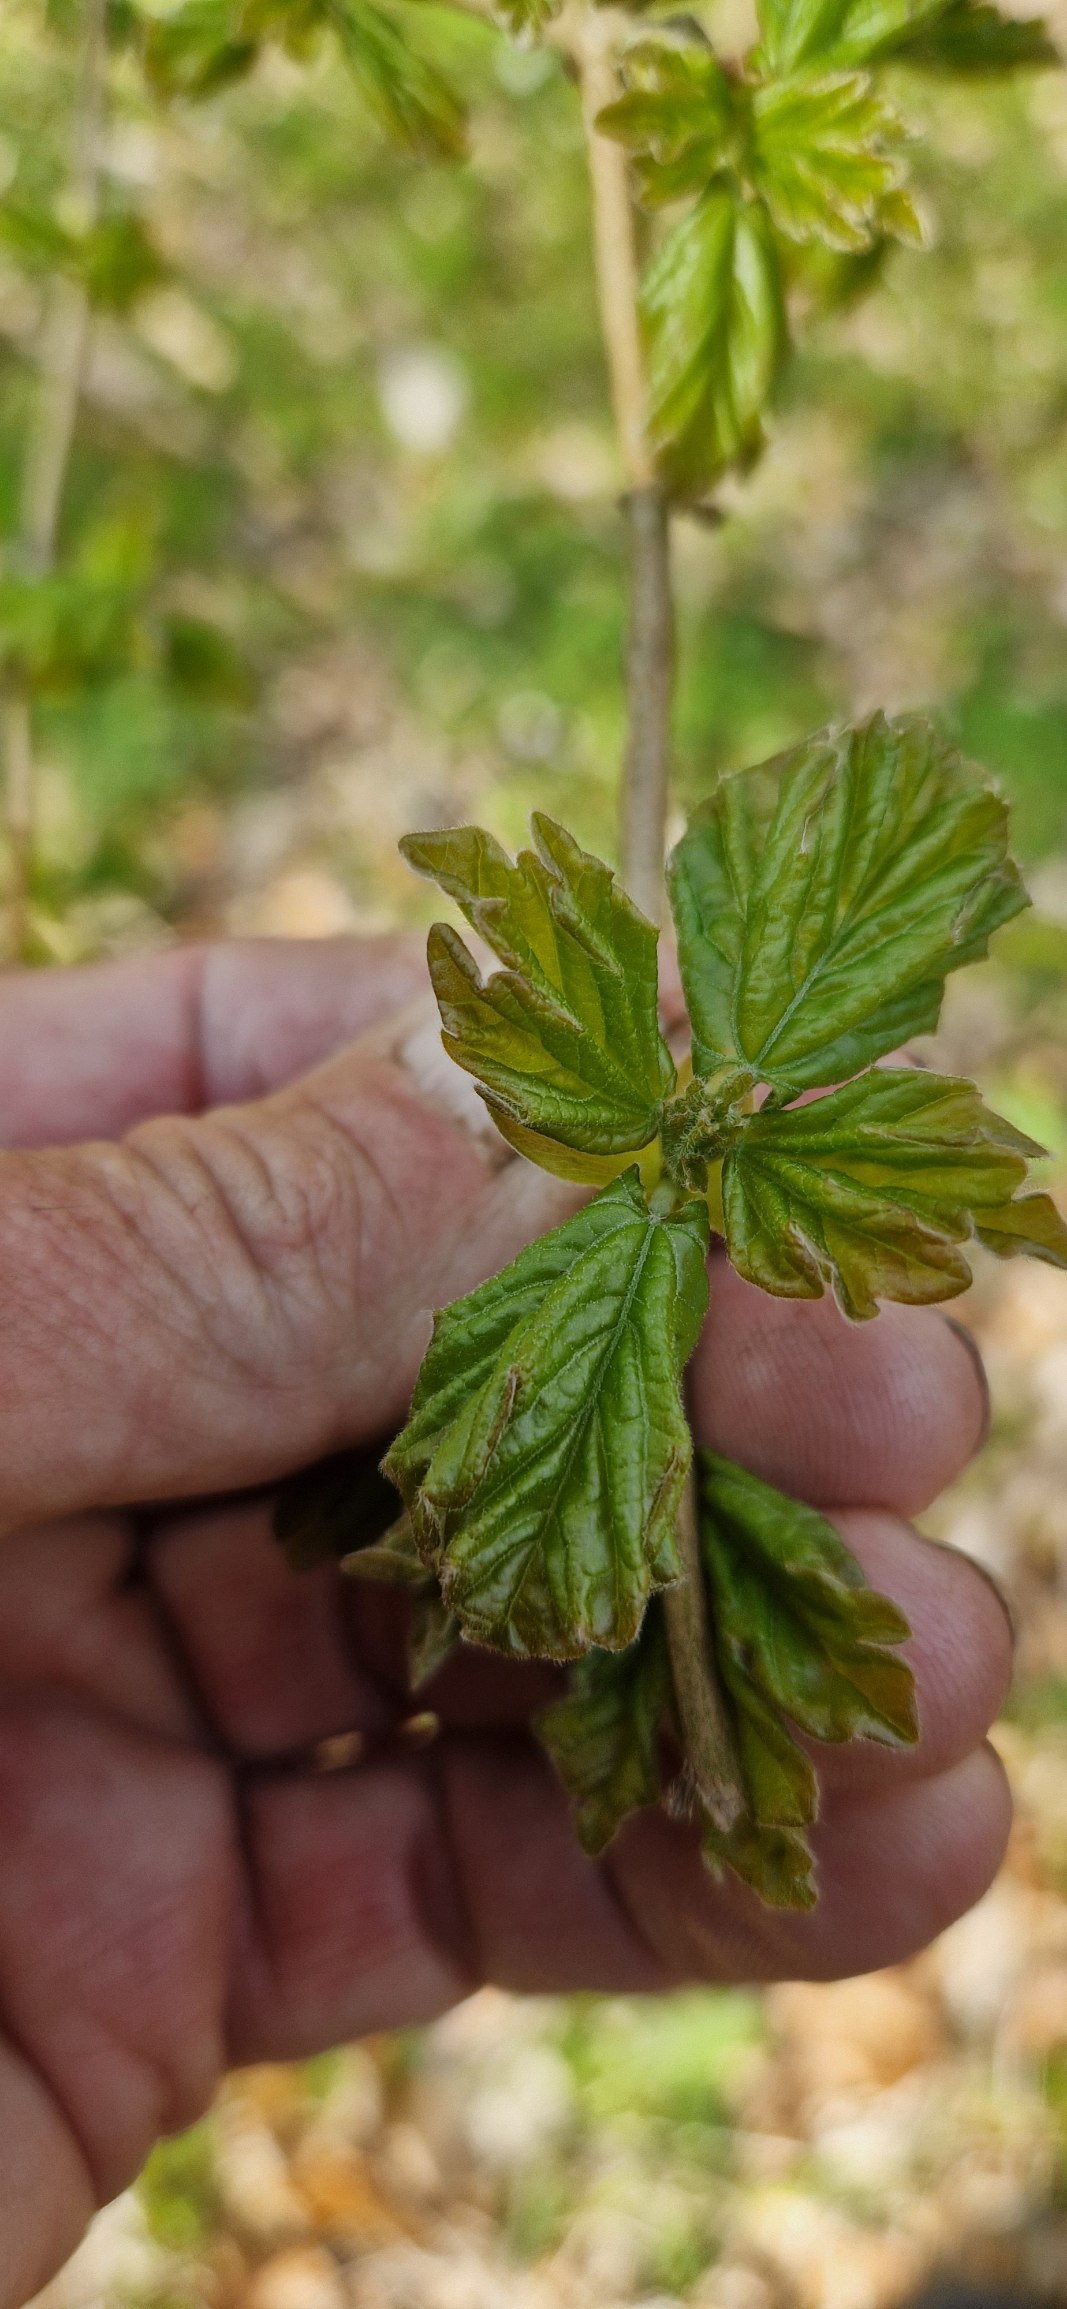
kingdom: Plantae
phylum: Tracheophyta
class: Magnoliopsida
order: Sapindales
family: Sapindaceae
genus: Acer
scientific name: Acer campestre
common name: Navr
